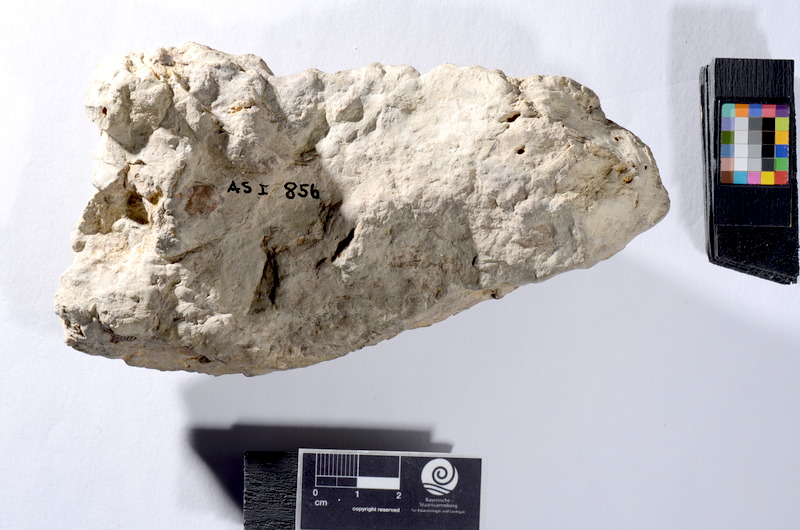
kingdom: Animalia
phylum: Chordata
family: Colobodontidae
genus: Colobodus
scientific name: Colobodus frequens
